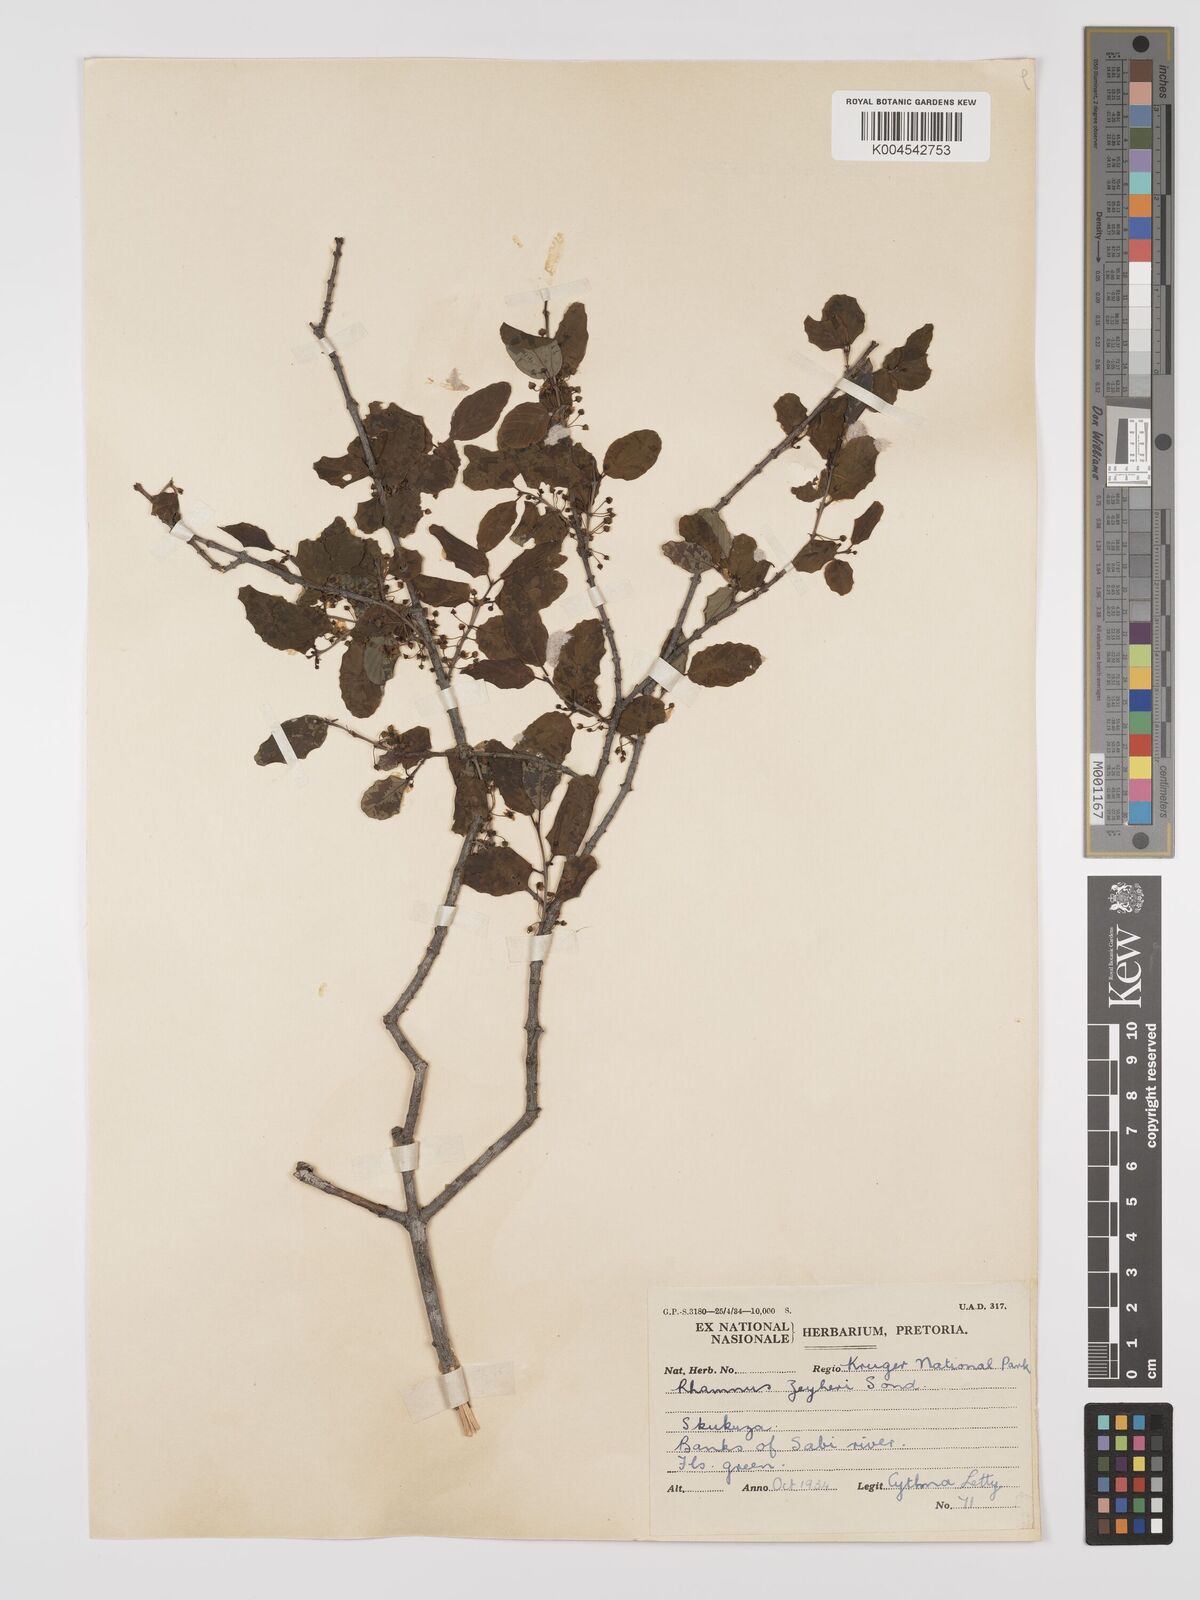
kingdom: Plantae
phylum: Tracheophyta
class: Magnoliopsida
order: Rosales
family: Rhamnaceae
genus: Phyllogeiton
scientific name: Phyllogeiton zeyheri
